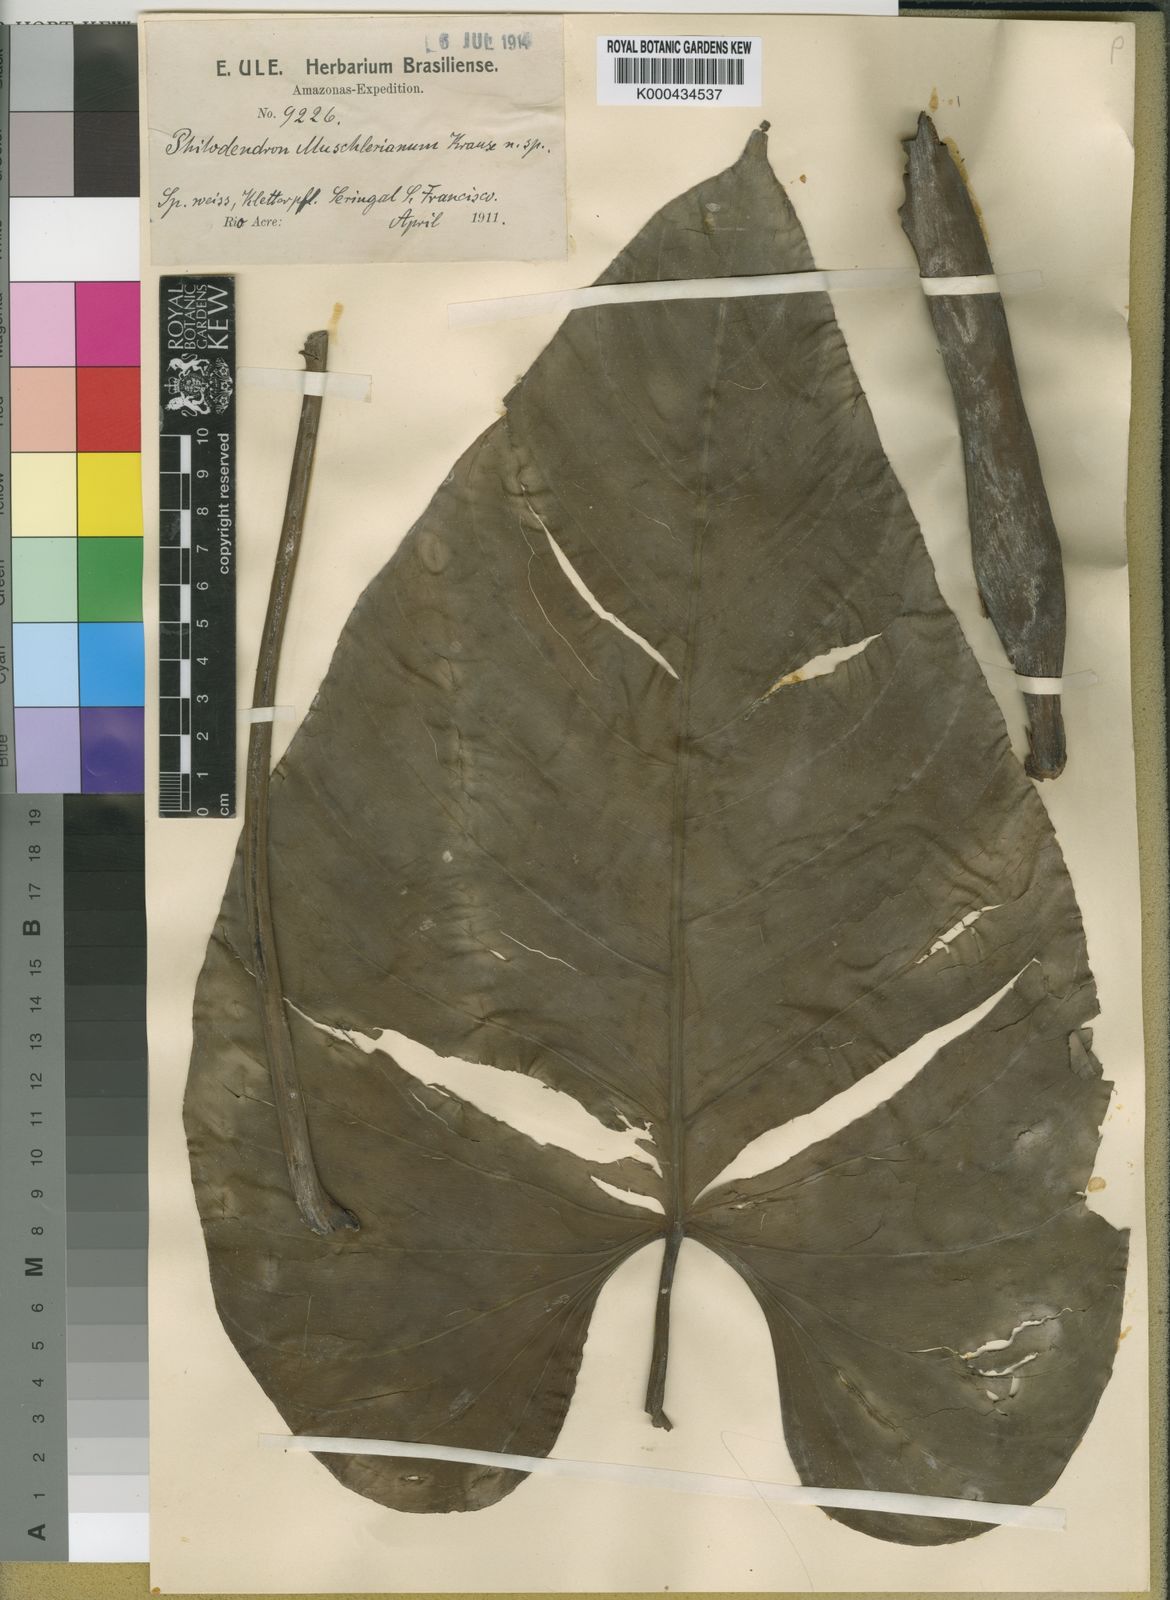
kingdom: Plantae
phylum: Tracheophyta
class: Liliopsida
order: Alismatales
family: Araceae
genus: Philodendron
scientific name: Philodendron ornatum
